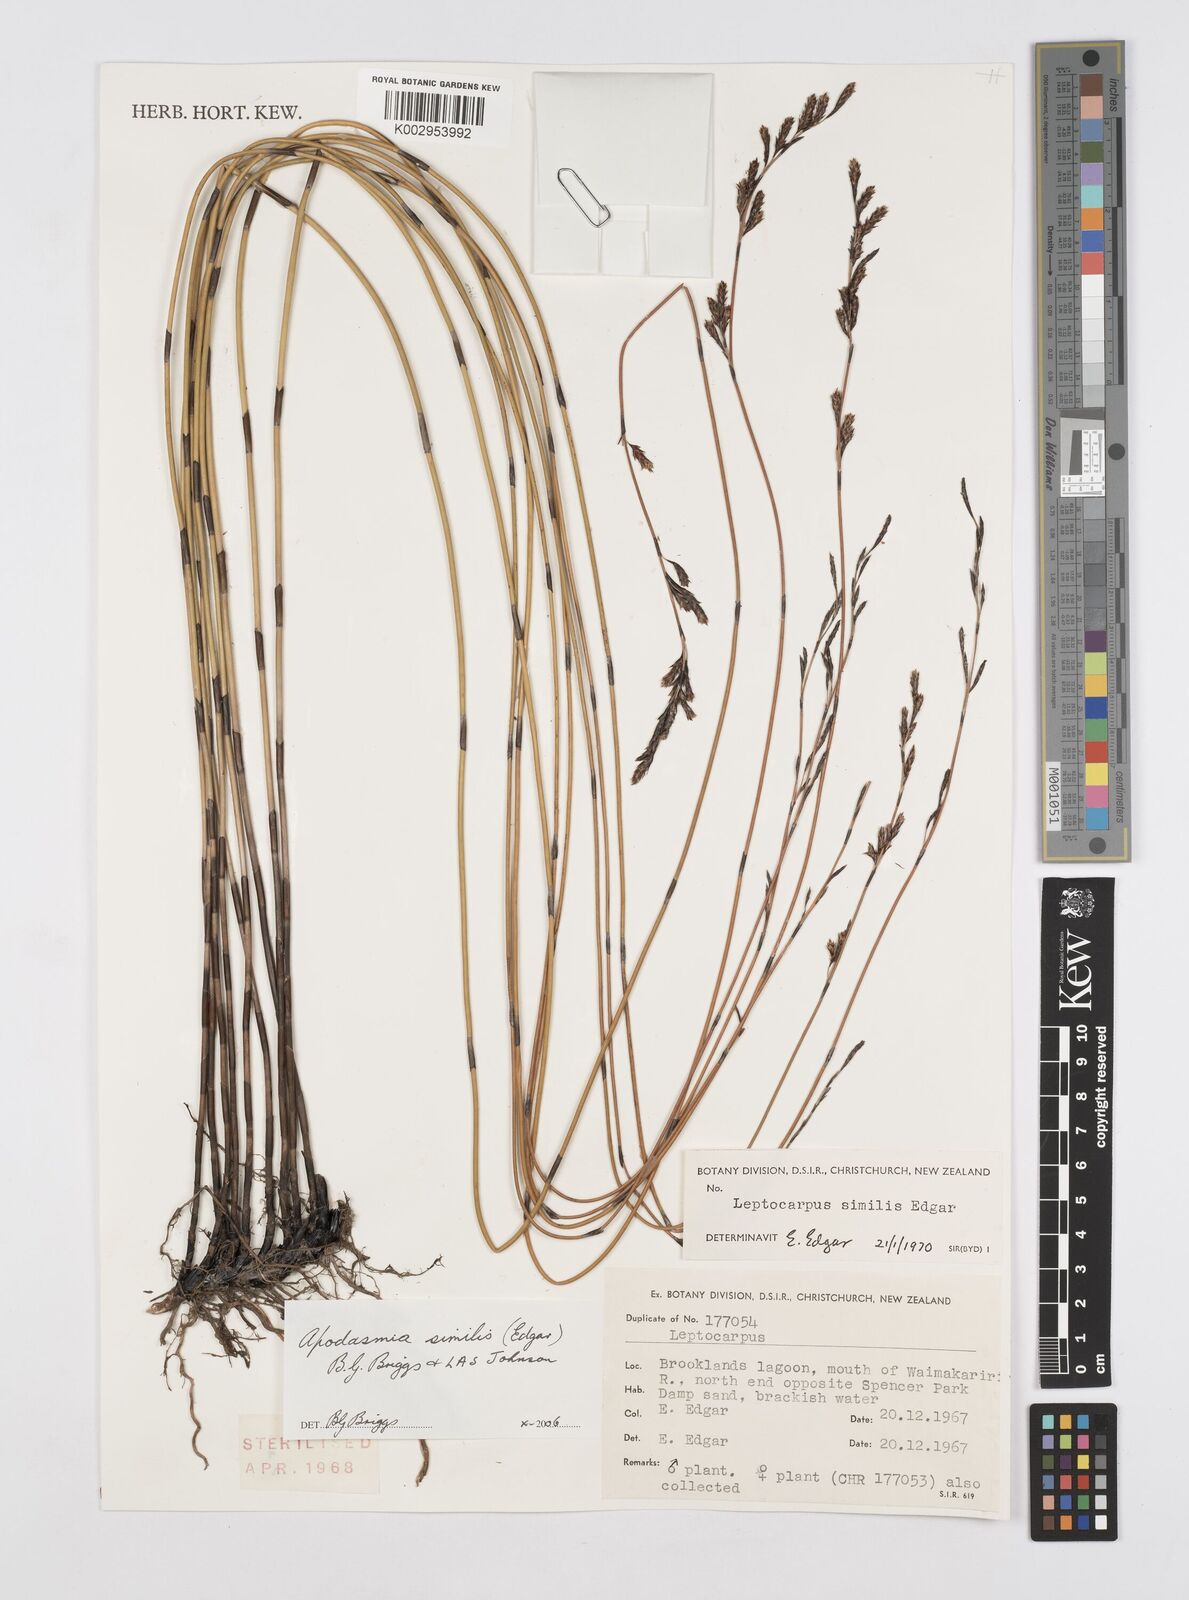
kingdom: Plantae
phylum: Tracheophyta
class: Liliopsida
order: Poales
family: Restionaceae
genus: Apodasmia
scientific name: Apodasmia similis
